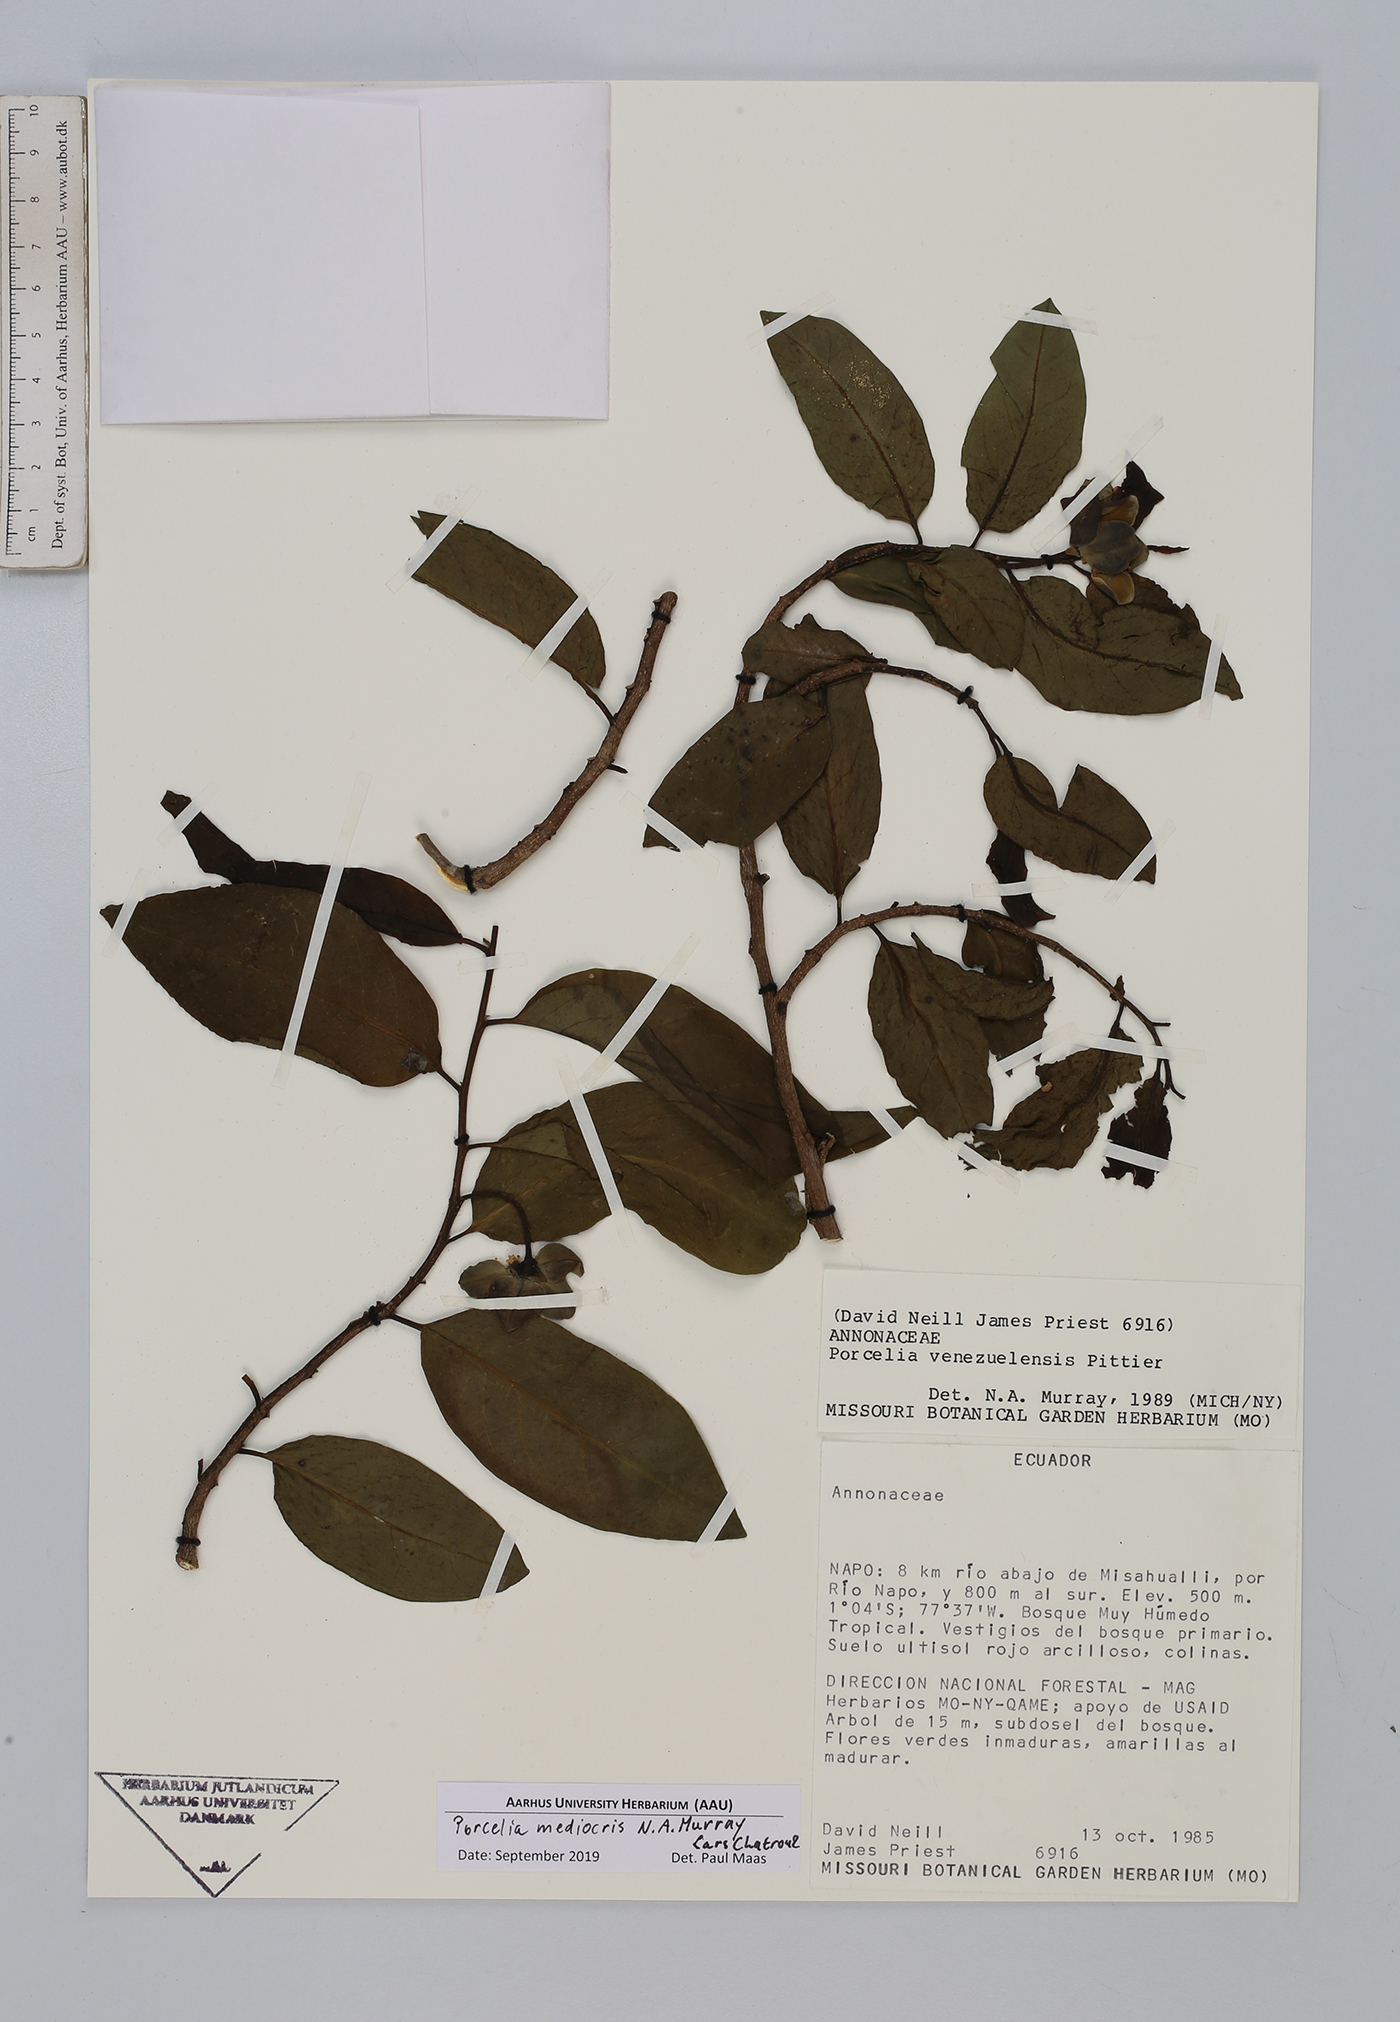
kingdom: Plantae
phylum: Tracheophyta
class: Magnoliopsida
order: Magnoliales
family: Annonaceae
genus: Porcelia
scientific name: Porcelia mediocris
